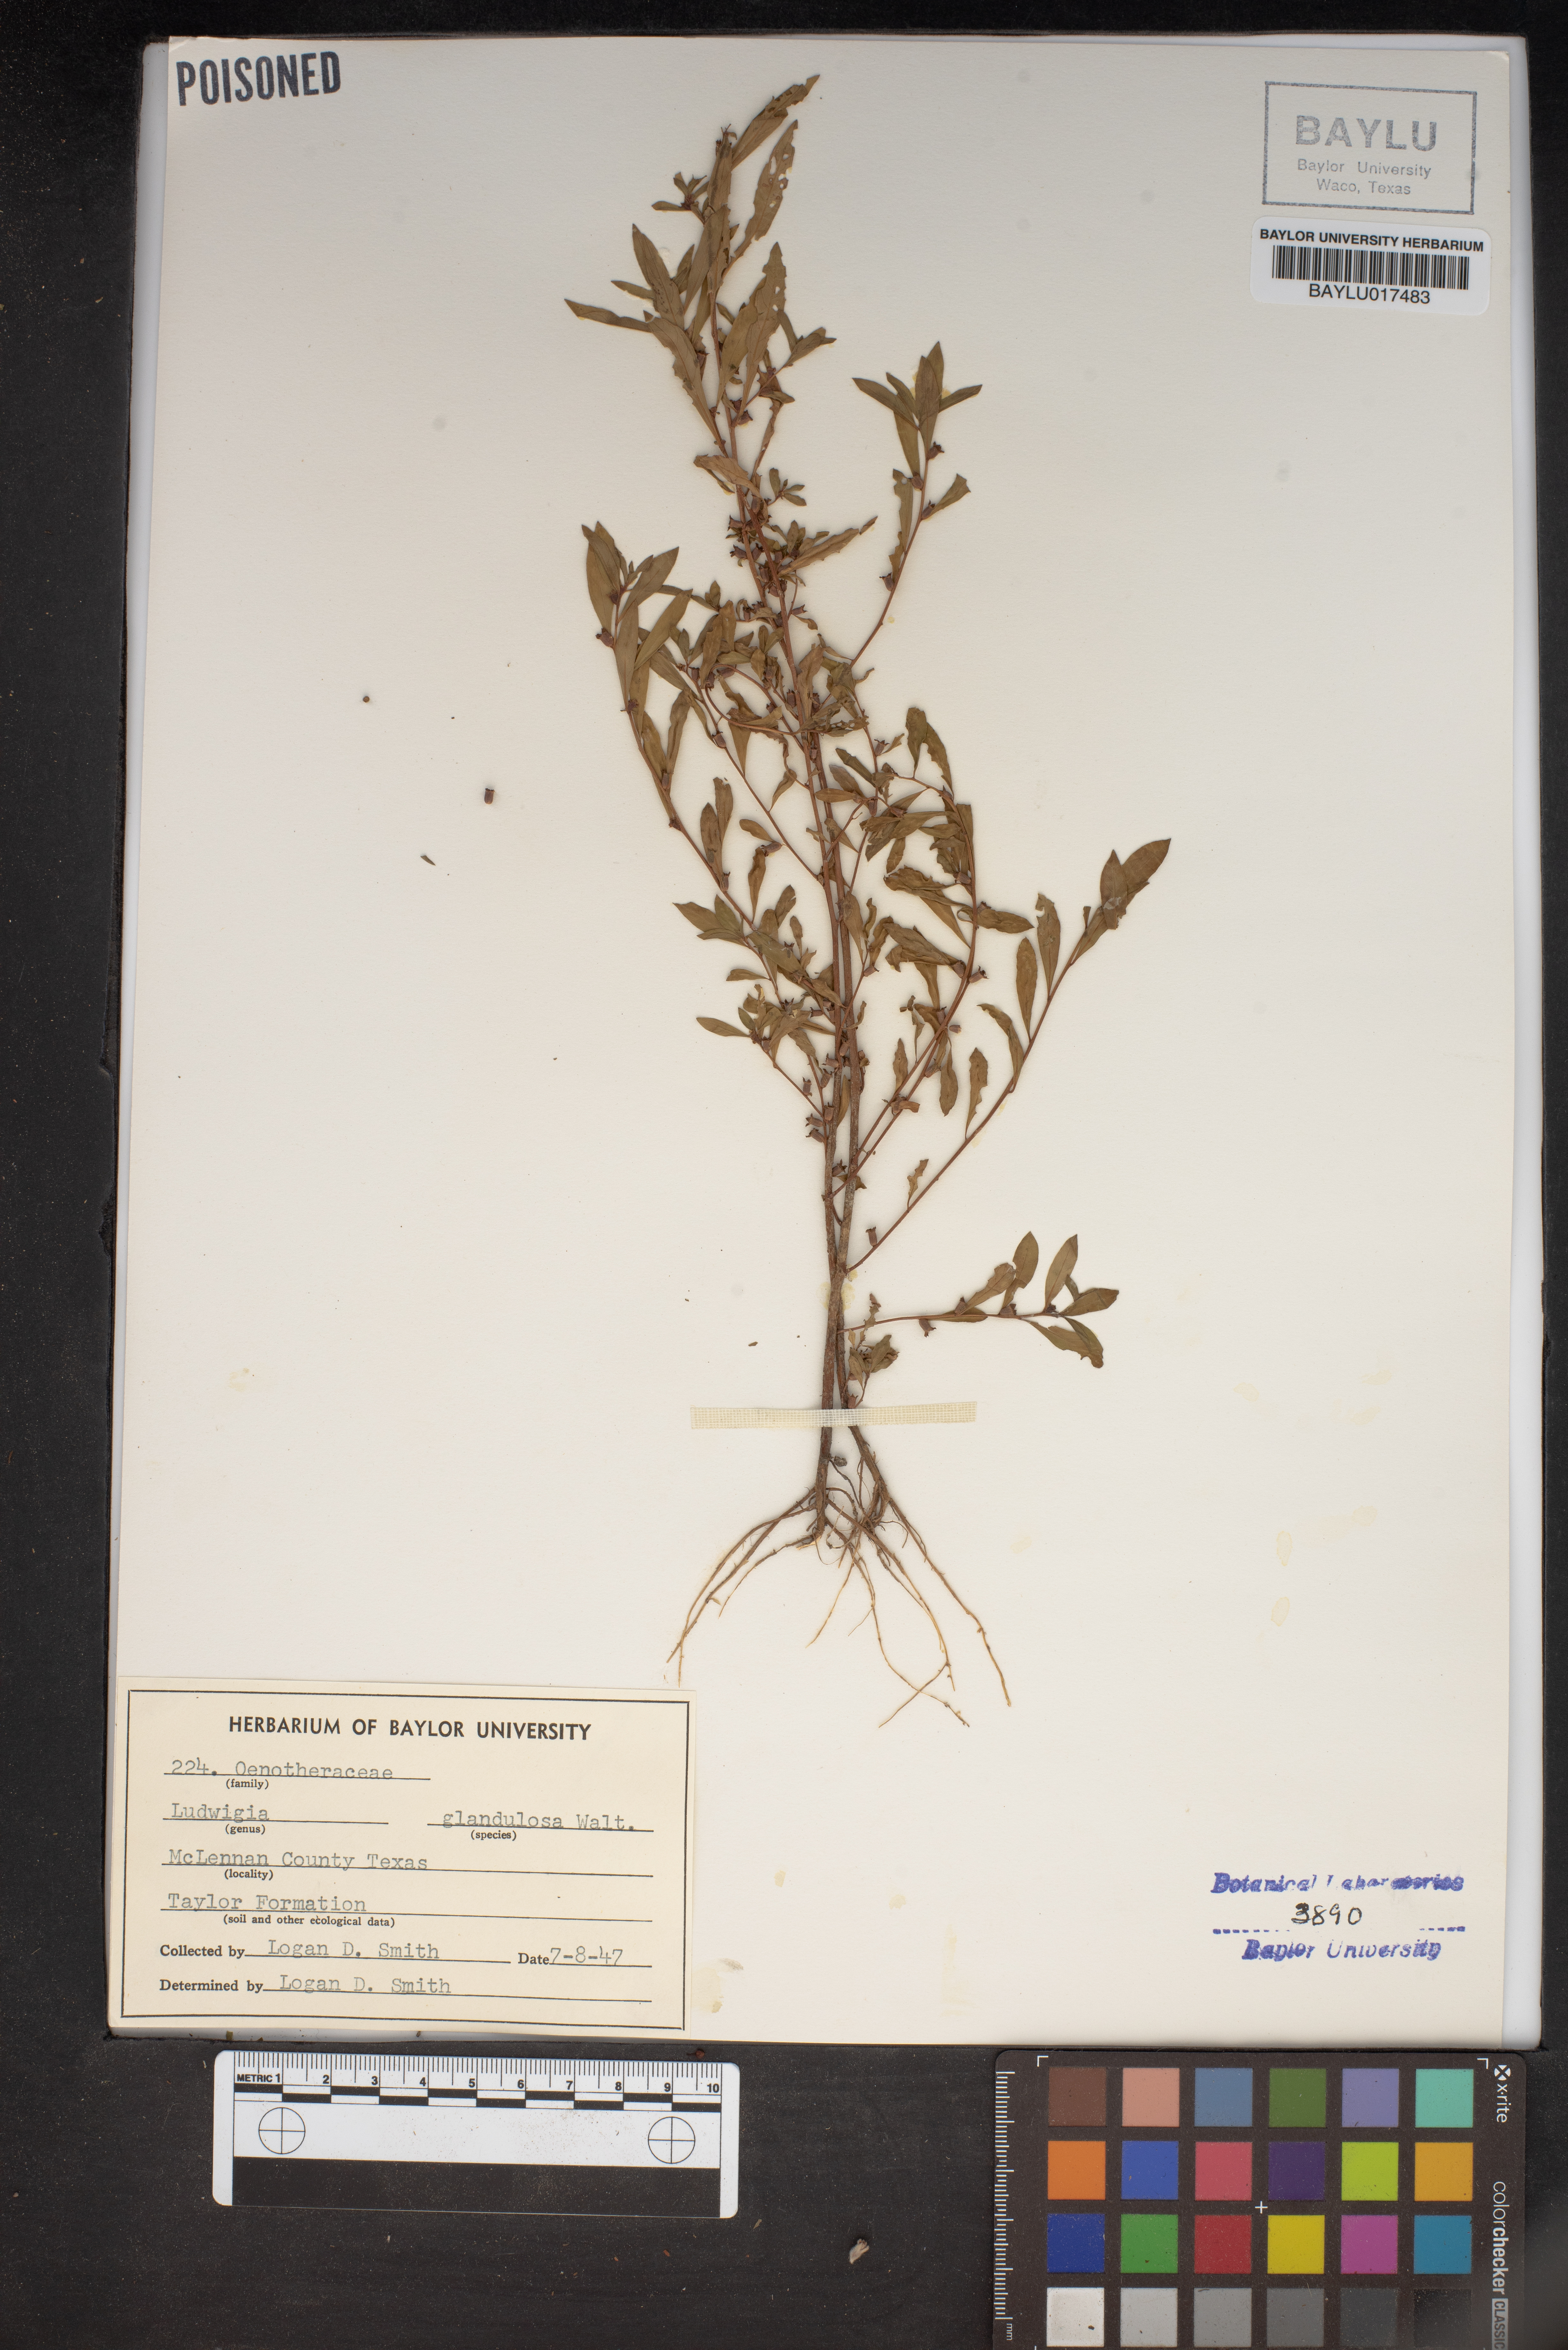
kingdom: Plantae
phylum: Tracheophyta
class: Magnoliopsida
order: Myrtales
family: Onagraceae
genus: Ludwigia
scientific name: Ludwigia glandulosa
